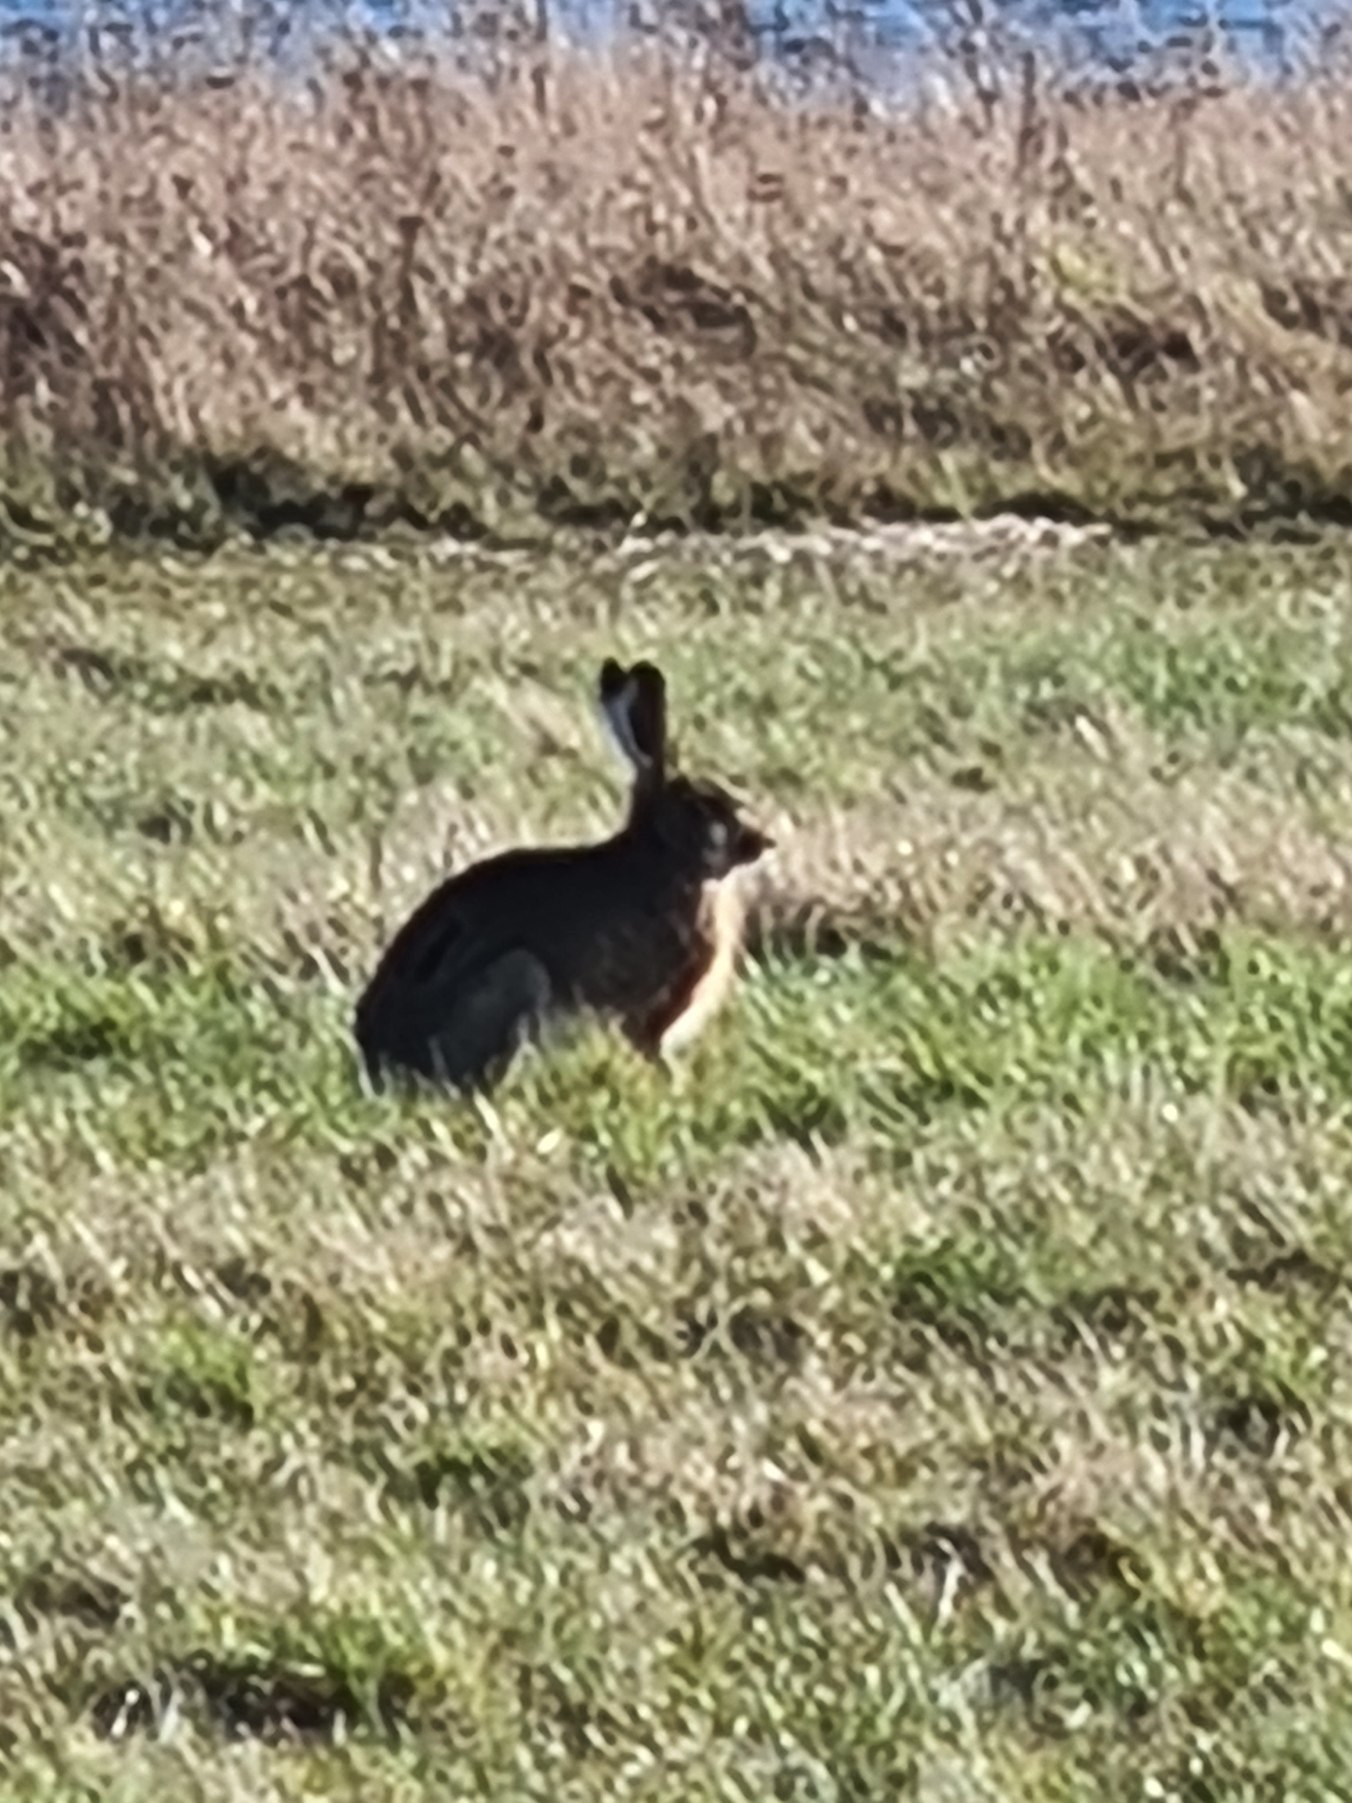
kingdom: Animalia
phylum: Chordata
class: Mammalia
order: Lagomorpha
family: Leporidae
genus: Lepus
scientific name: Lepus europaeus
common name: Hare
